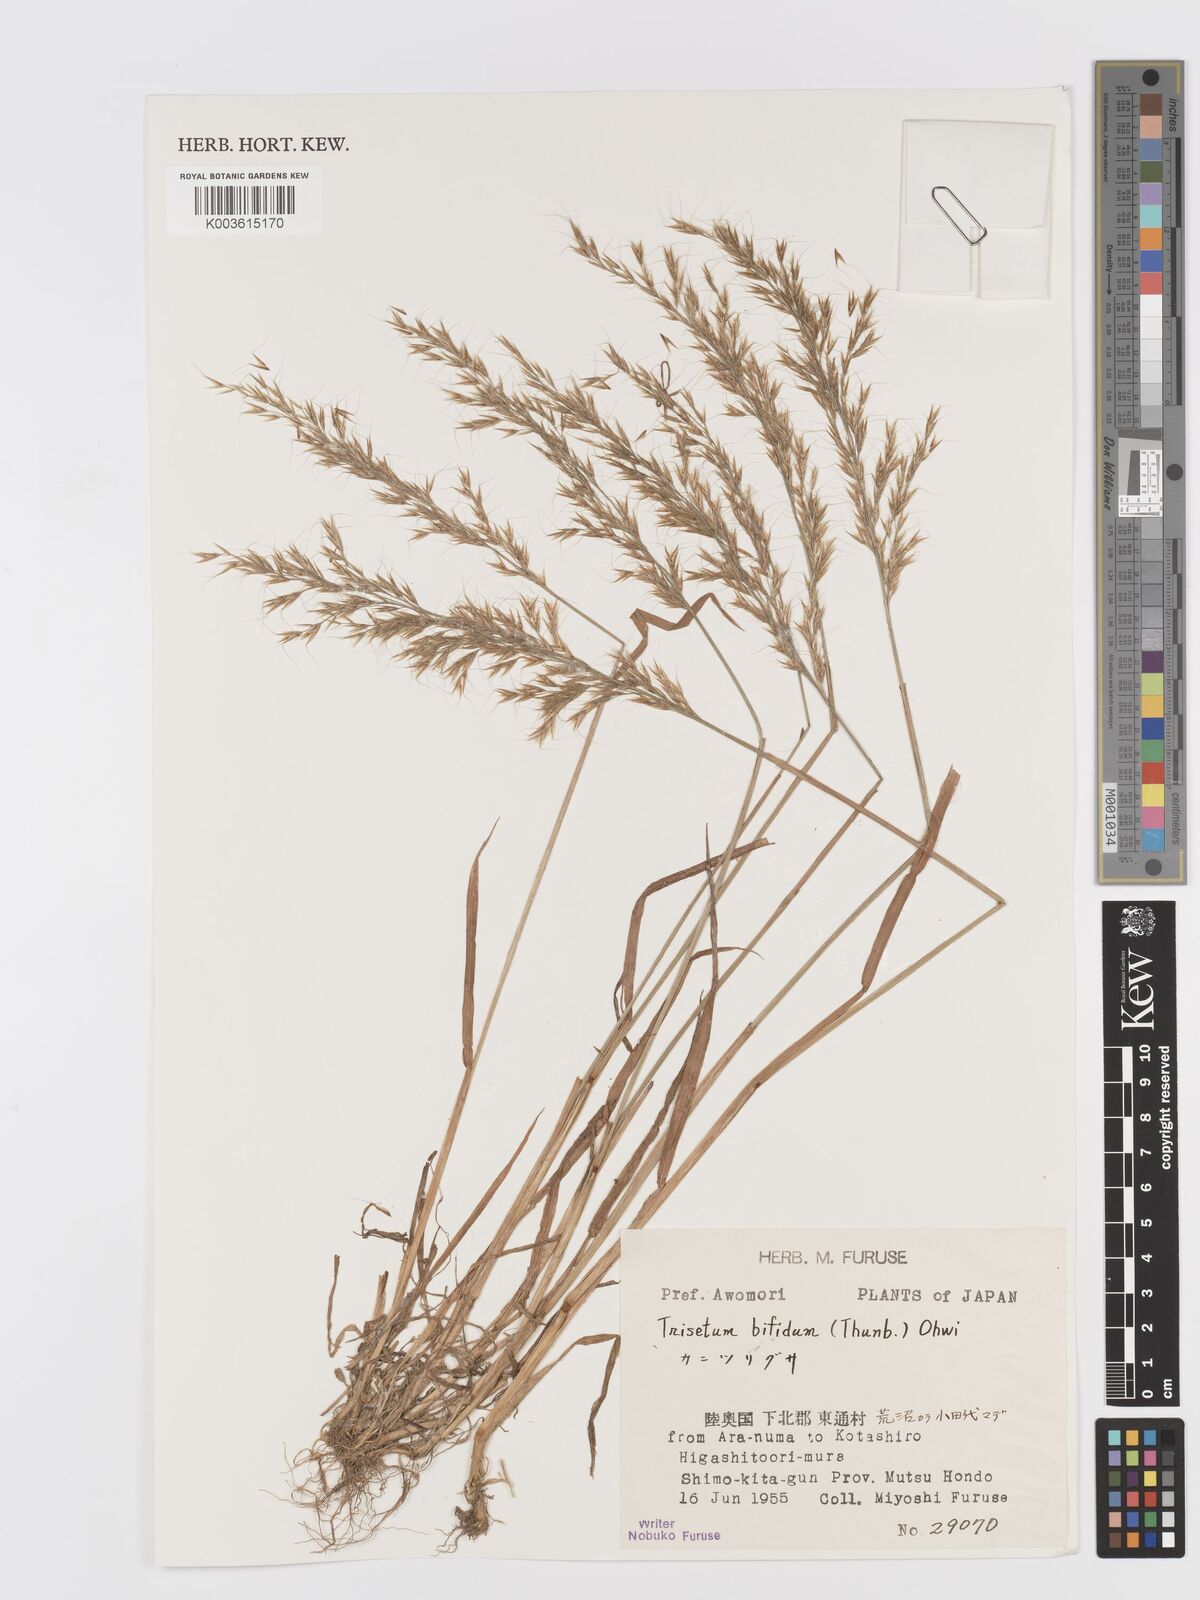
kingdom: Plantae
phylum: Tracheophyta
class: Liliopsida
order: Poales
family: Poaceae
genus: Sibirotrisetum
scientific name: Sibirotrisetum bifidum
